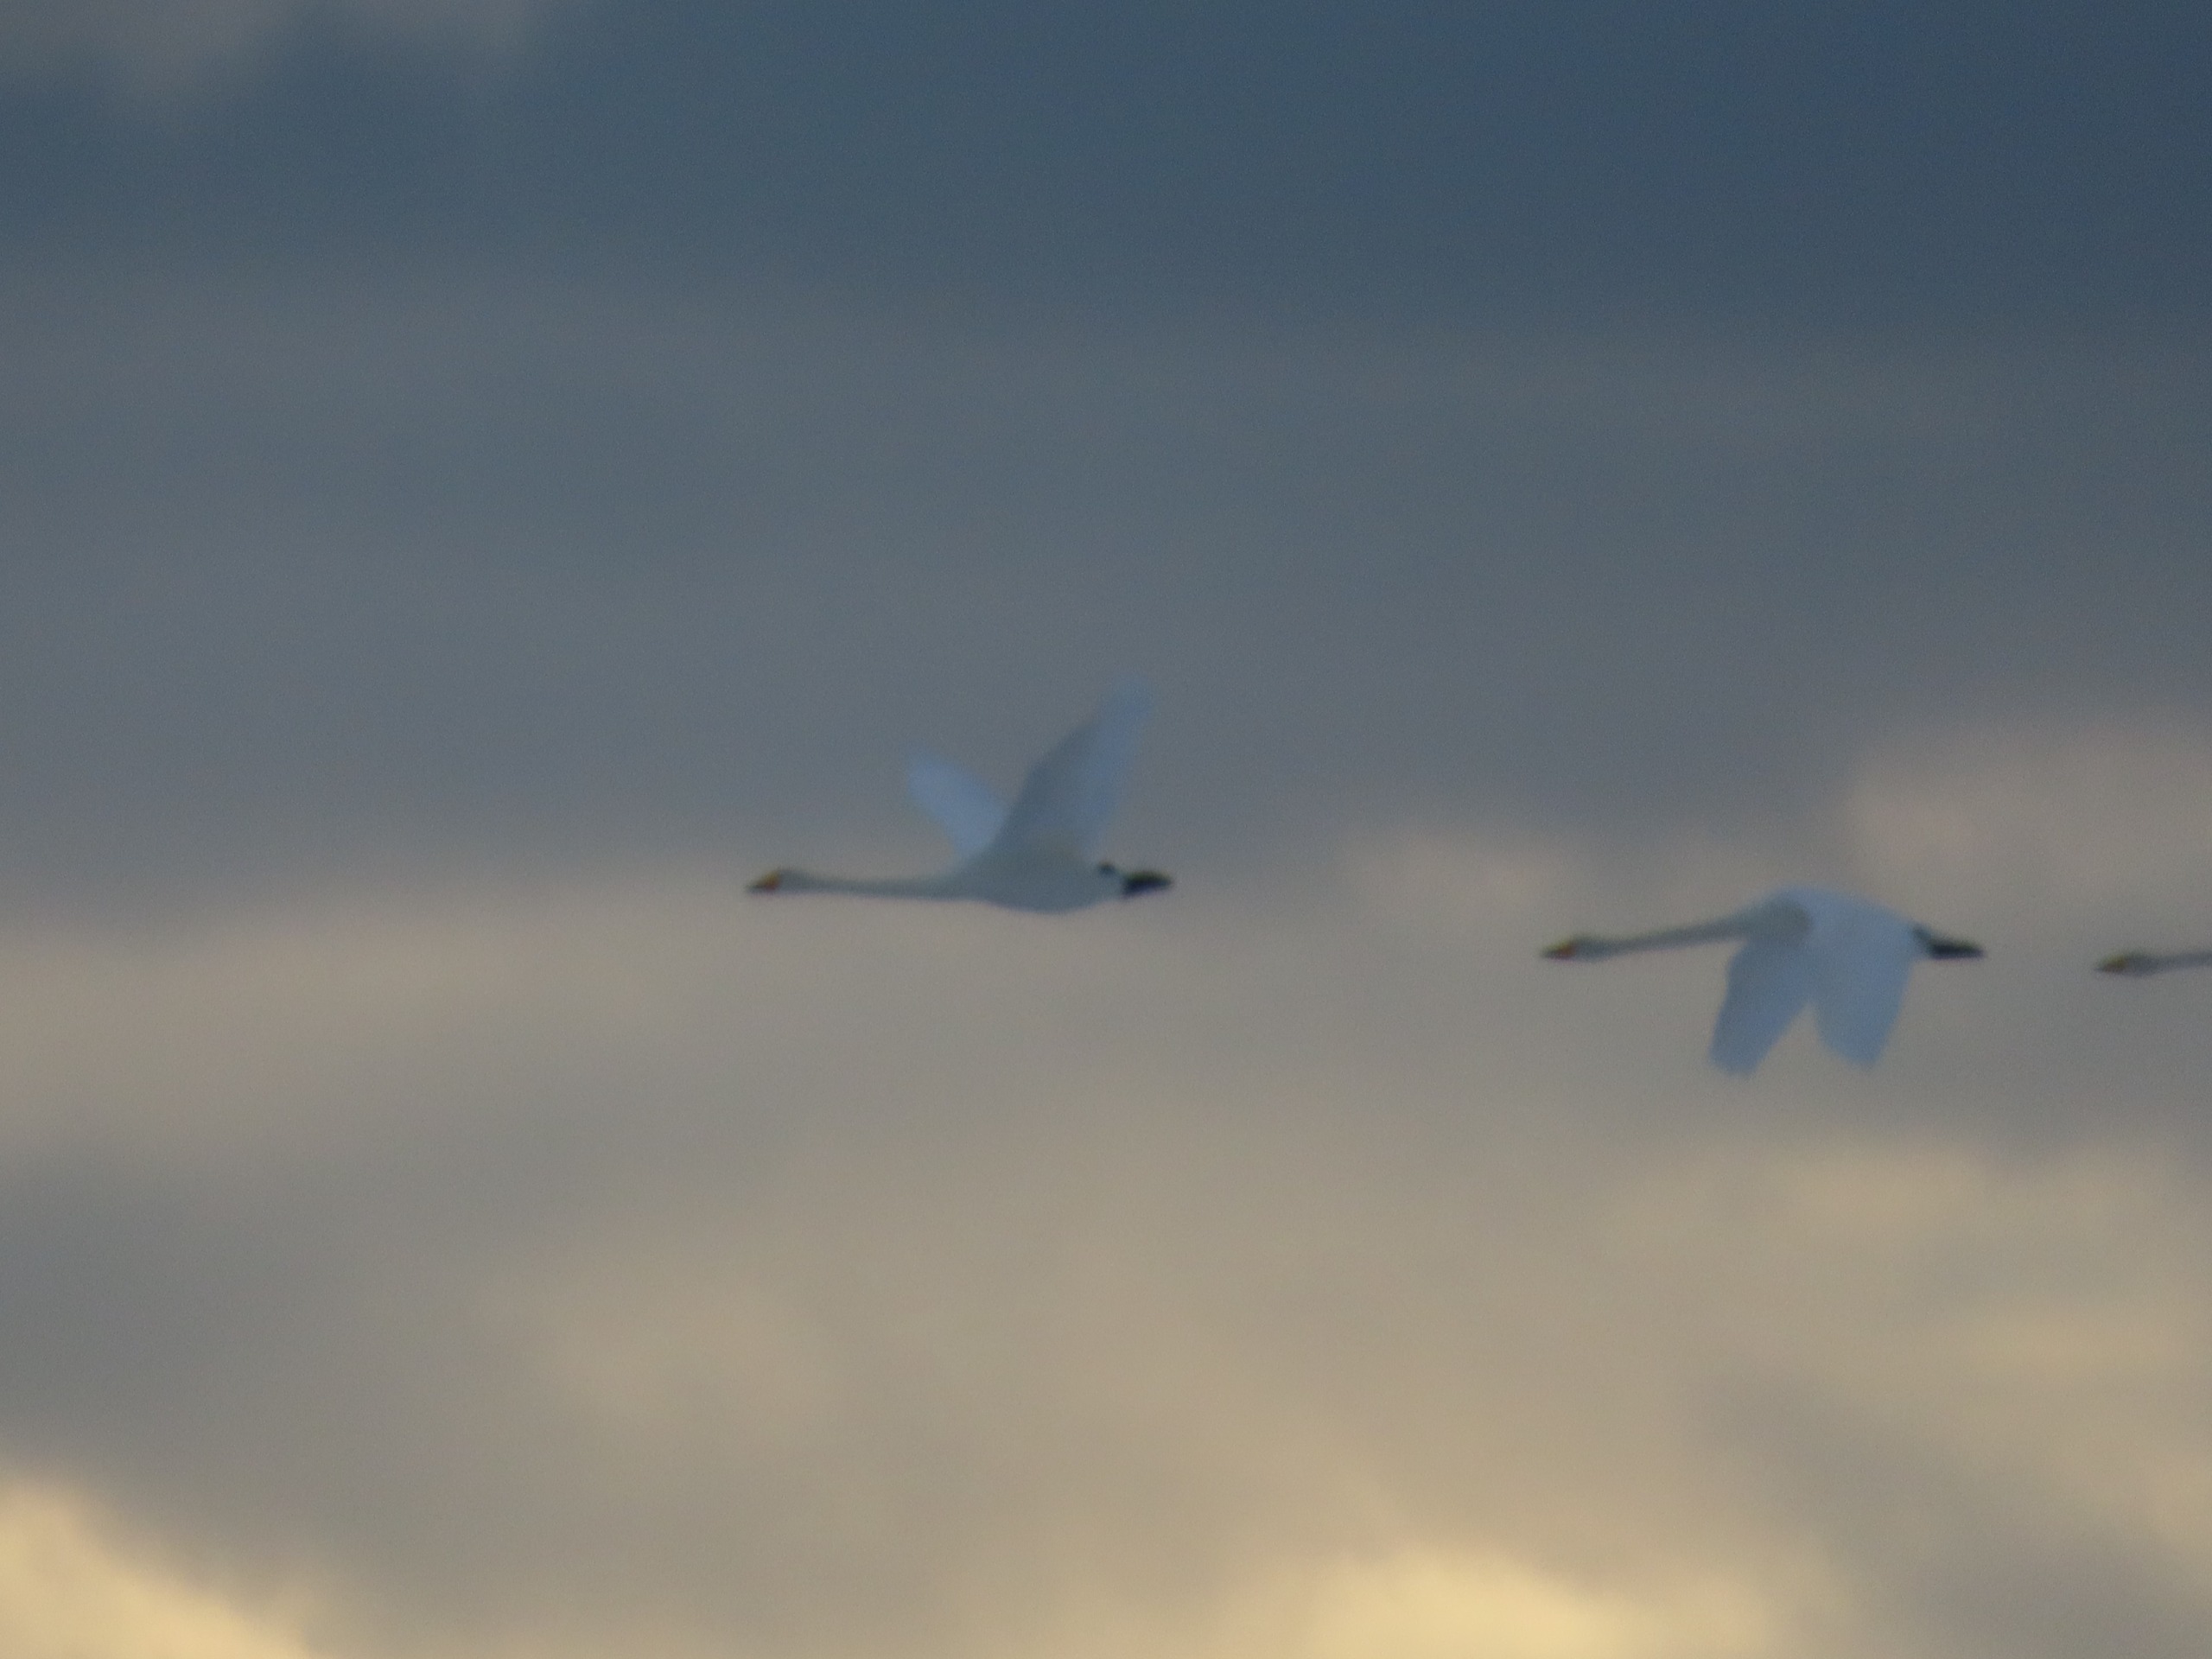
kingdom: Animalia
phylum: Chordata
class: Aves
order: Anseriformes
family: Anatidae
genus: Cygnus
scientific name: Cygnus cygnus
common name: Sangsvane
